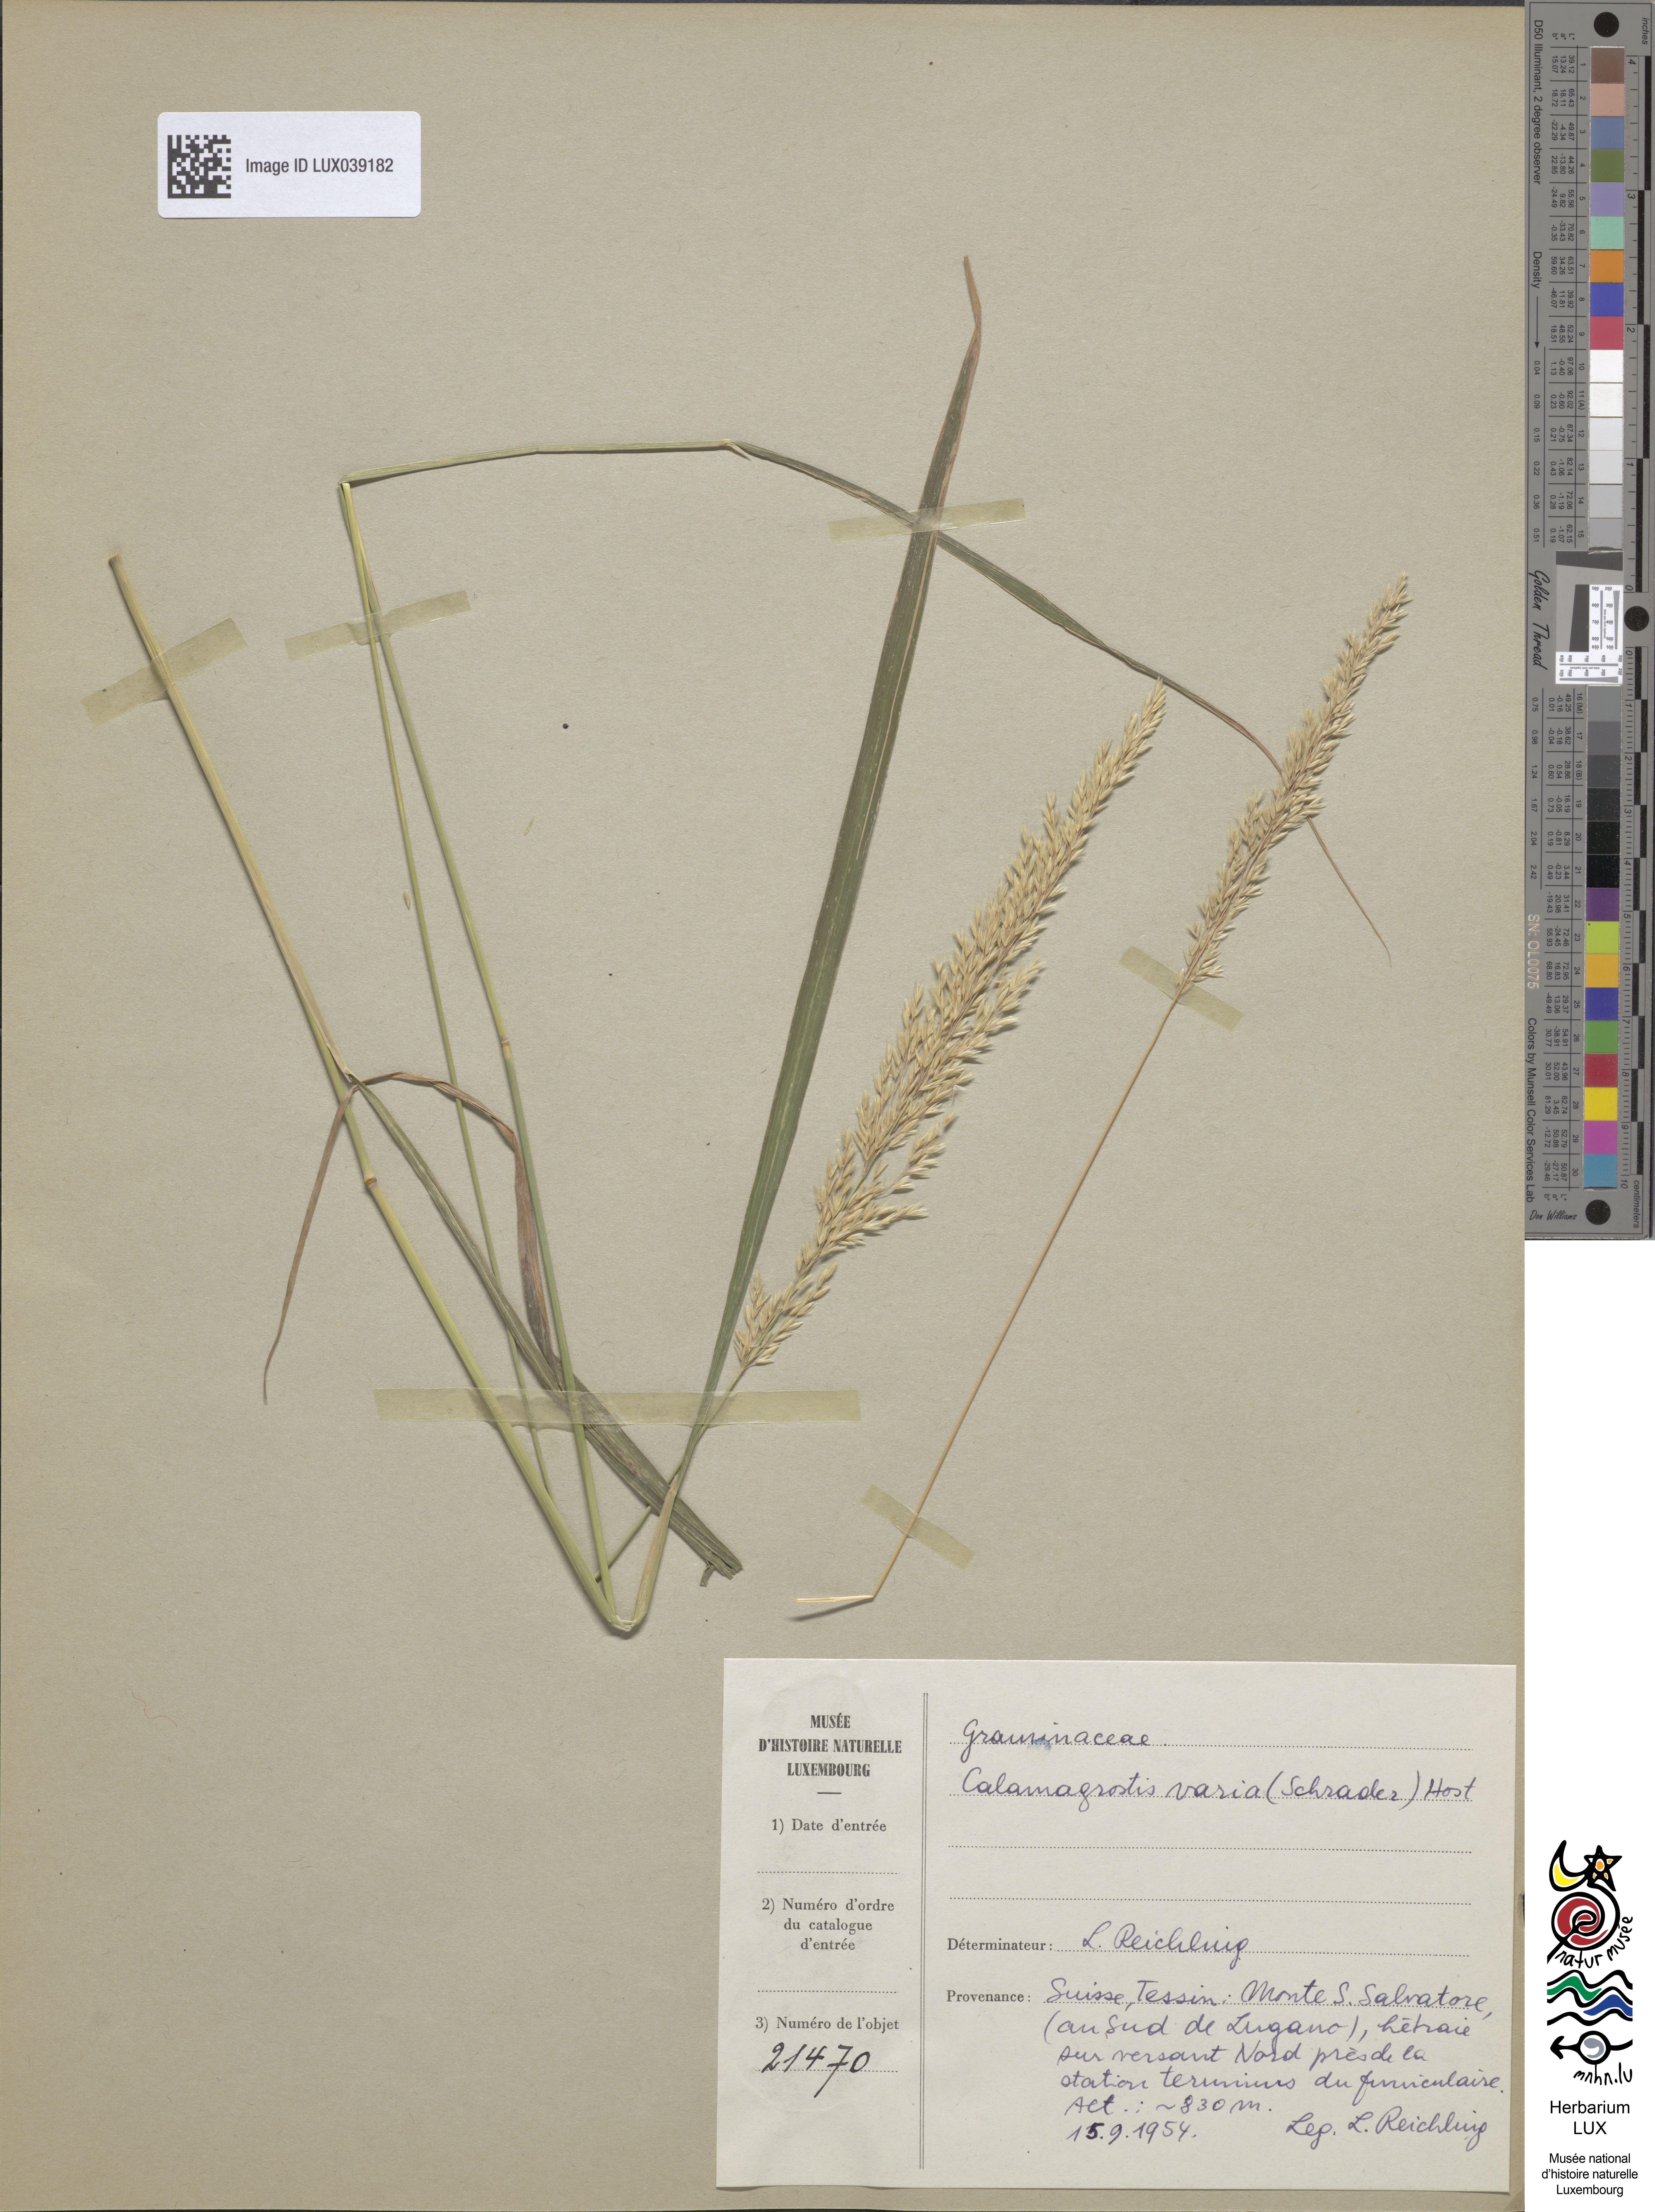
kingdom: Plantae
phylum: Tracheophyta
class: Liliopsida
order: Poales
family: Poaceae
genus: Calamagrostis
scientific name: Calamagrostis varia
